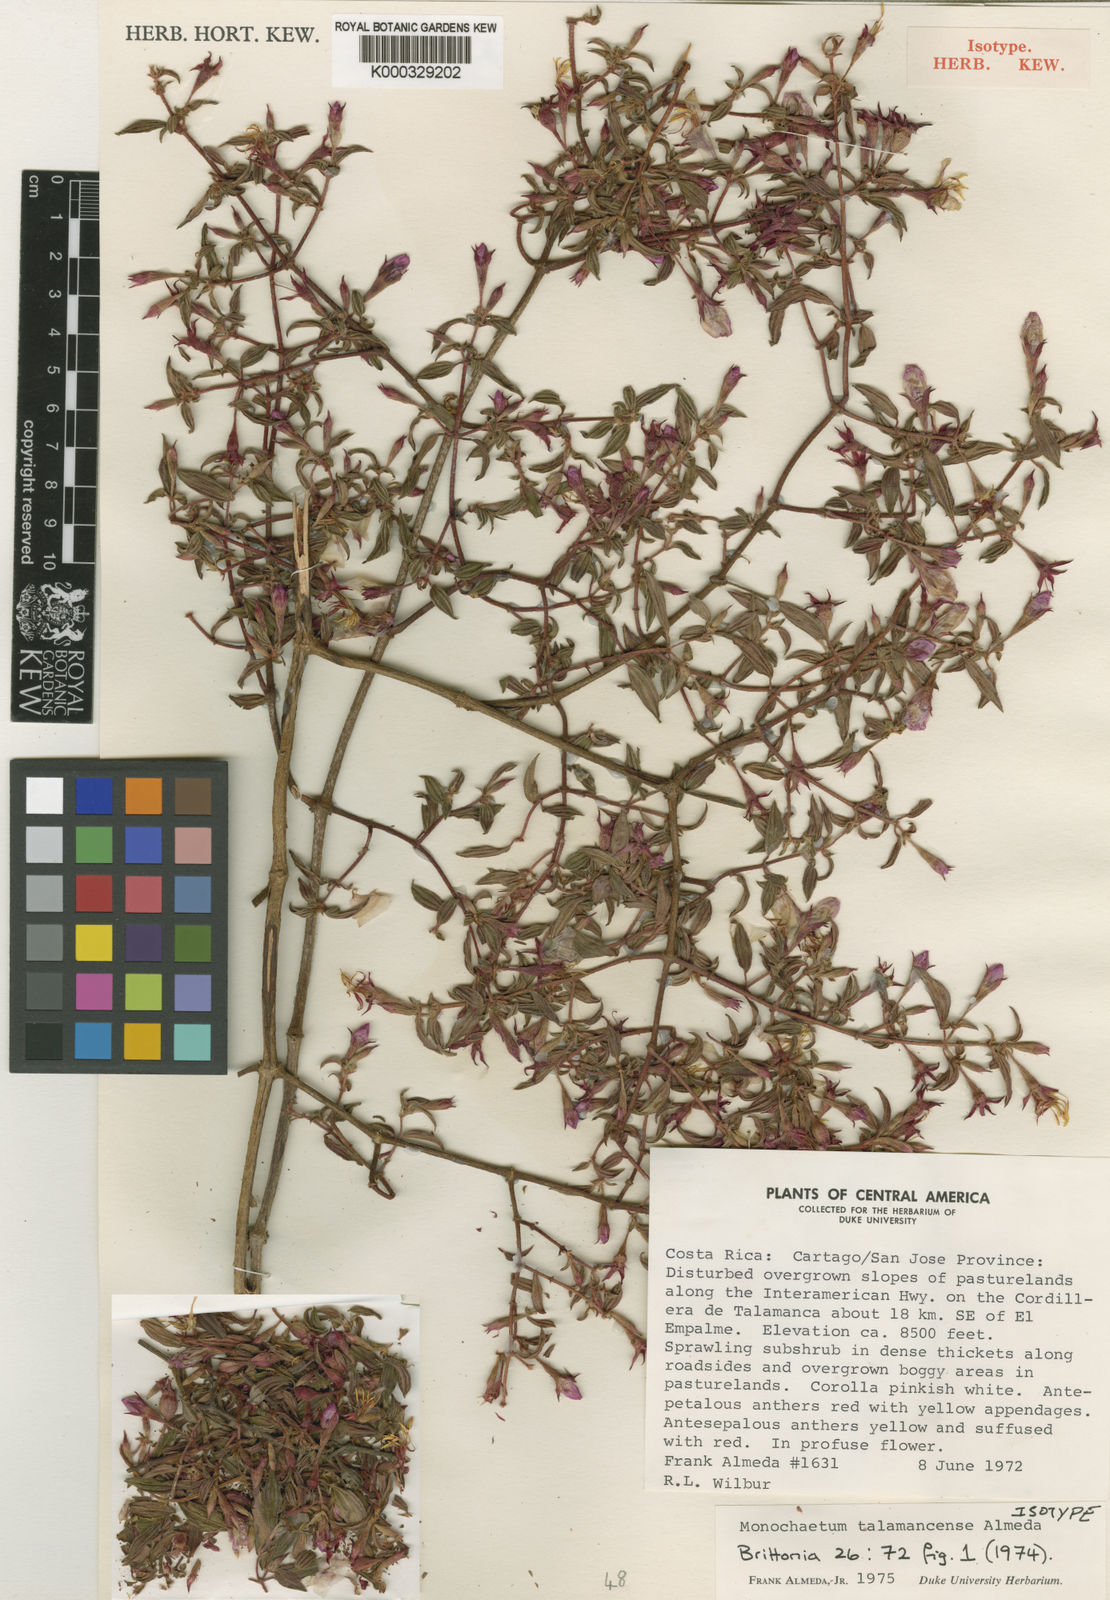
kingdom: Plantae
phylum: Tracheophyta
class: Magnoliopsida
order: Myrtales
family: Melastomataceae
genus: Monochaetum
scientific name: Monochaetum talamancense
